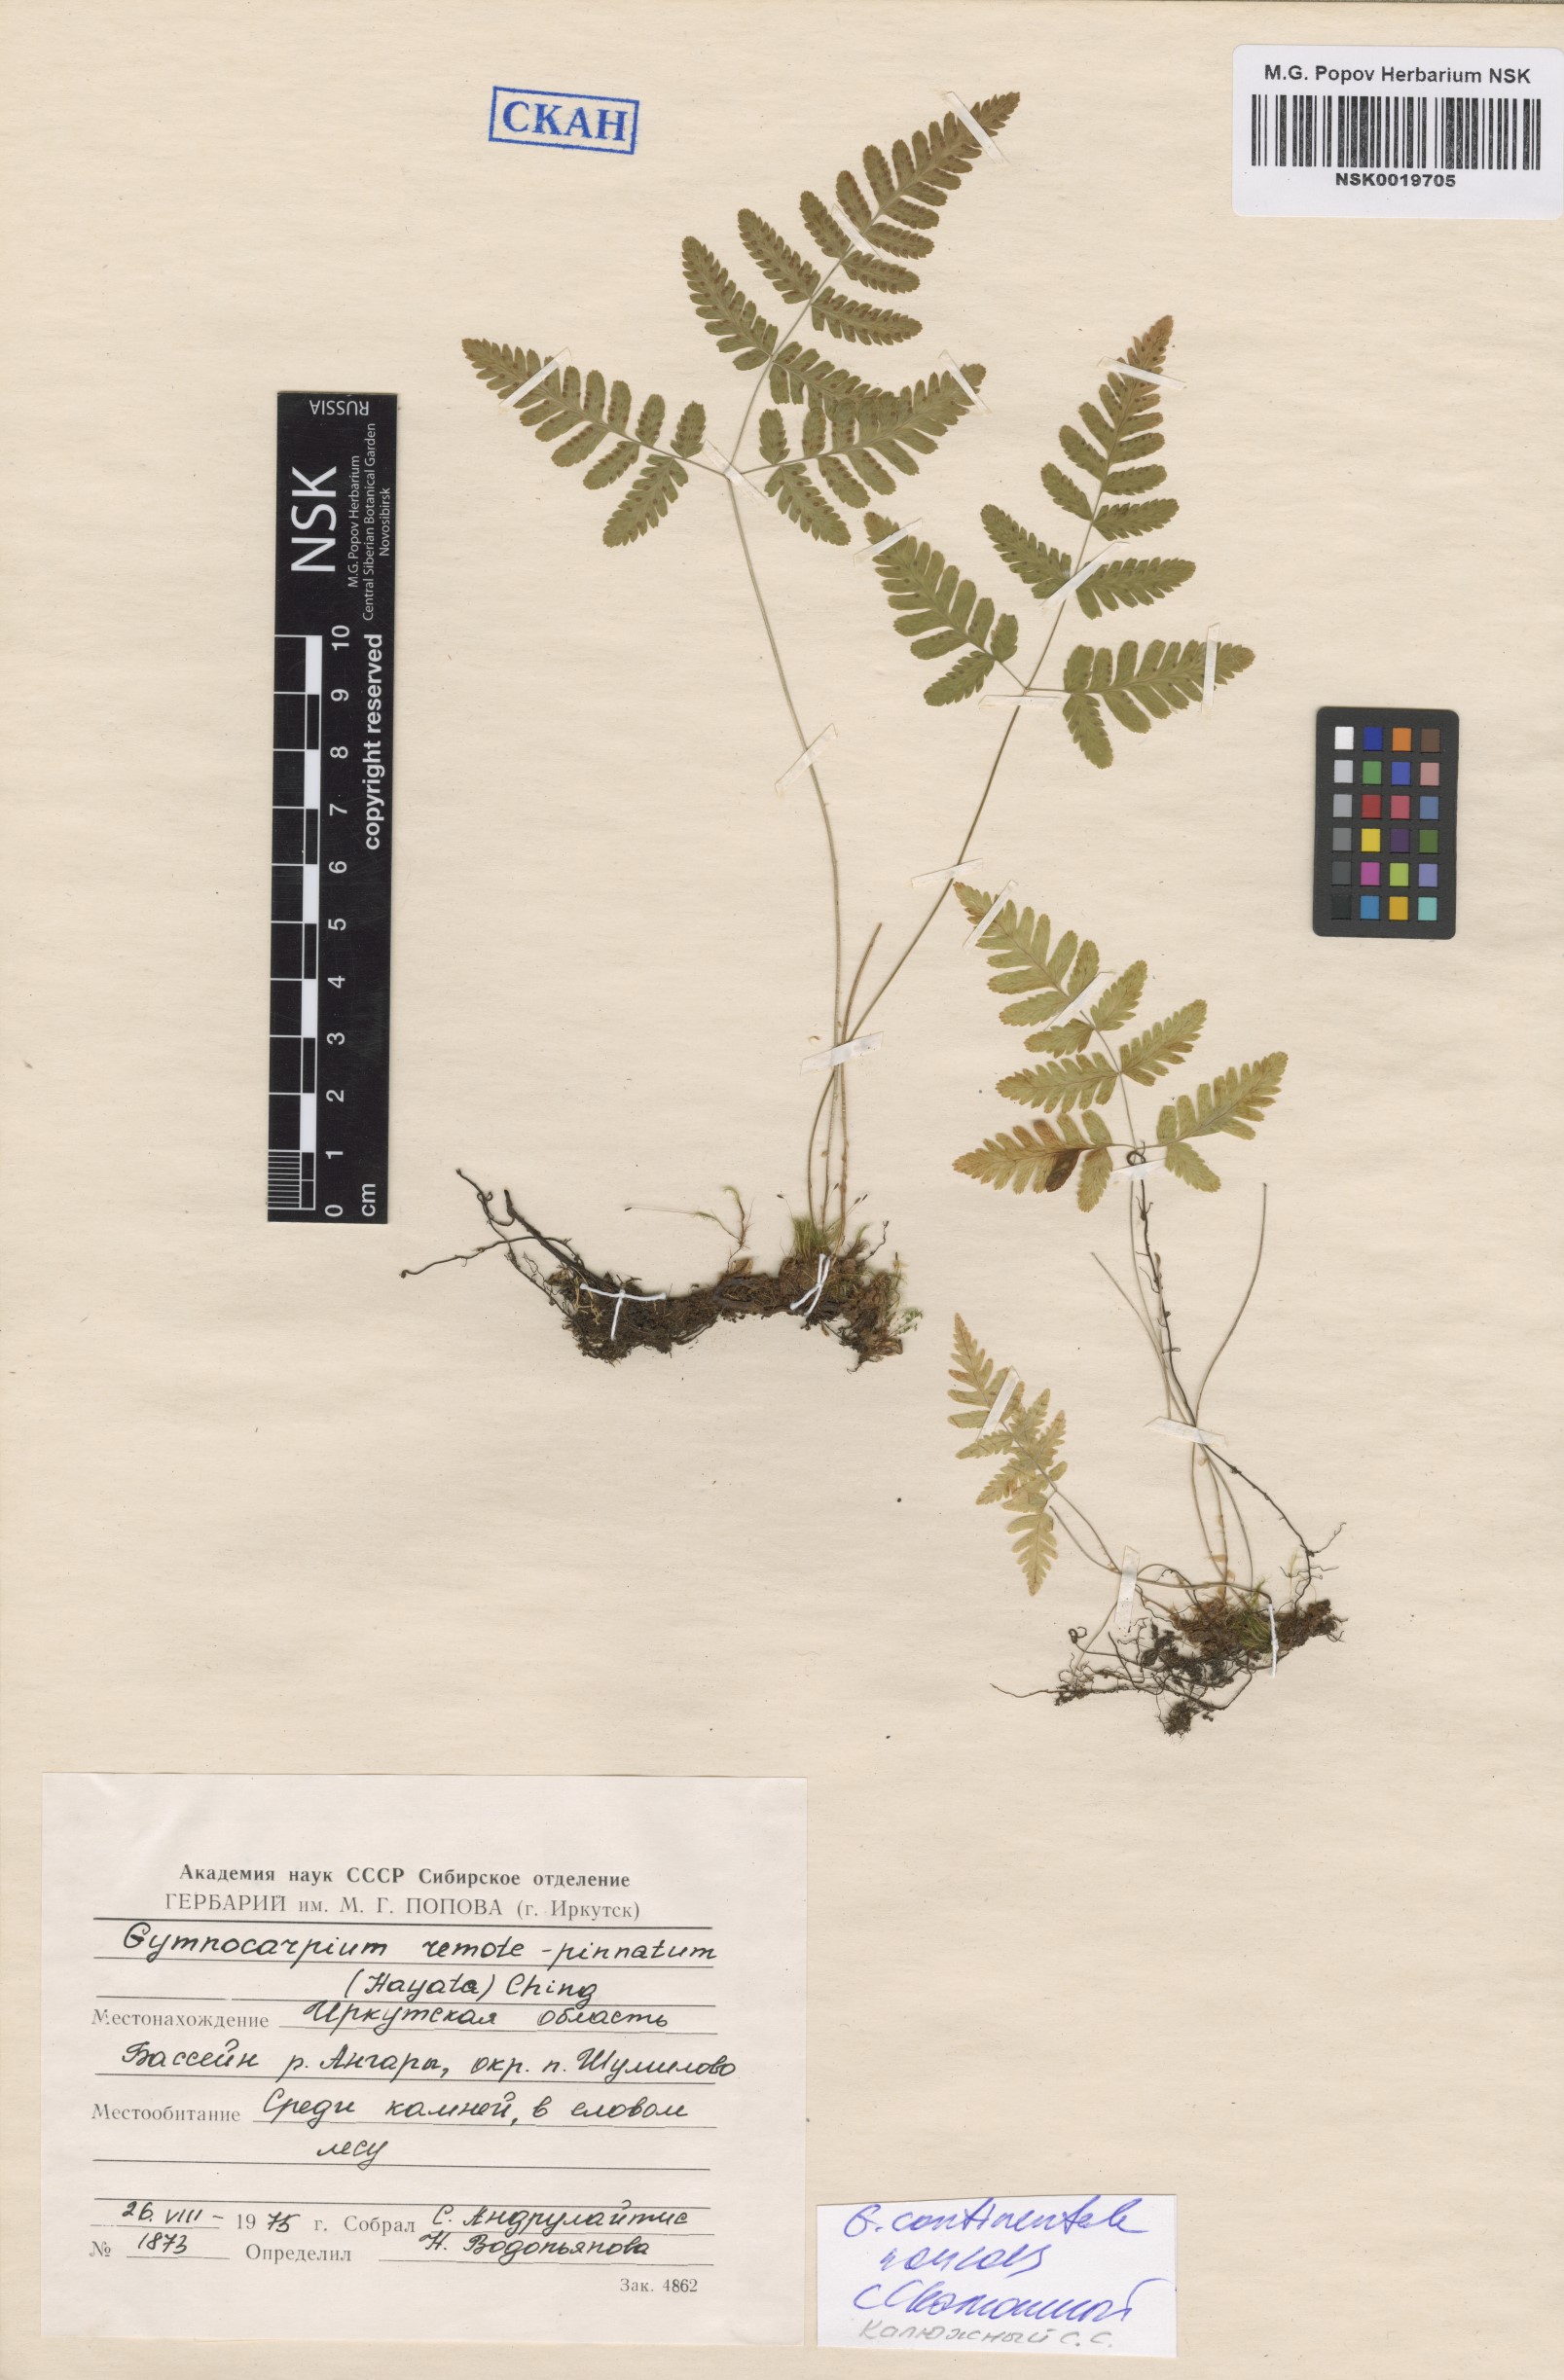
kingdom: Plantae
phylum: Tracheophyta
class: Polypodiopsida
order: Polypodiales
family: Cystopteridaceae
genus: Gymnocarpium
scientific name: Gymnocarpium continentale
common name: Asian oak fern
